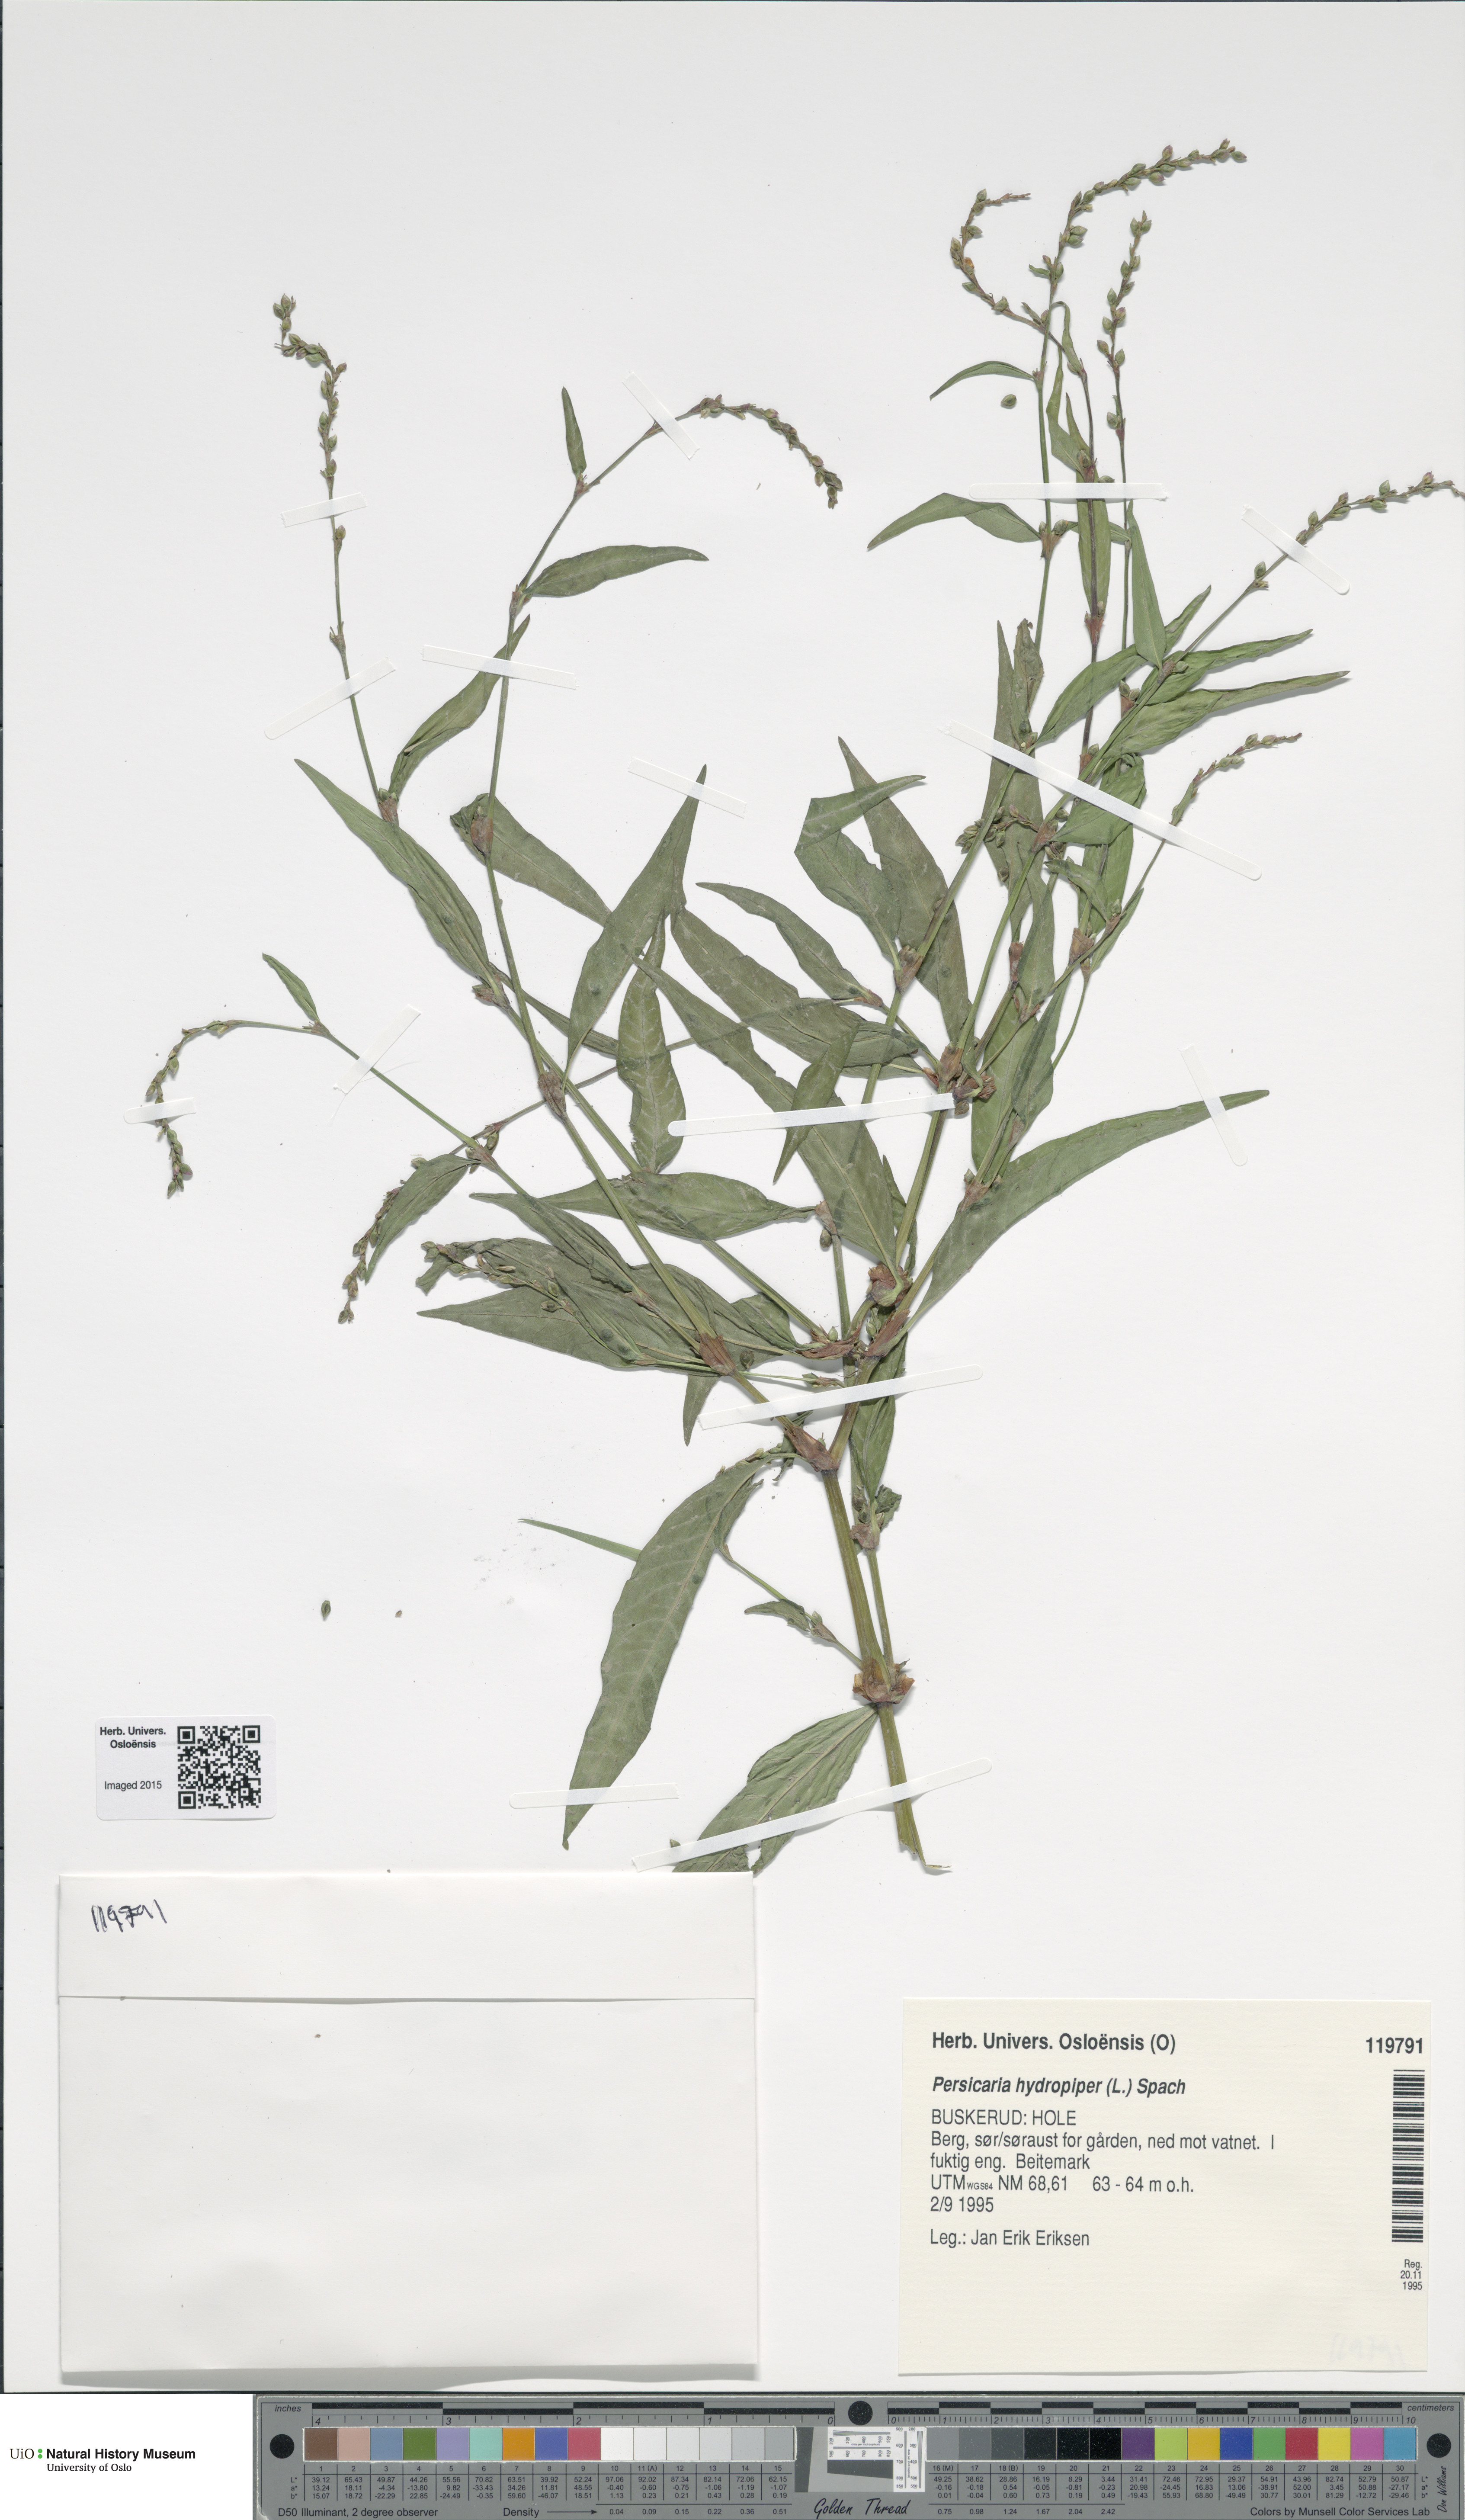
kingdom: Plantae
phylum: Tracheophyta
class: Magnoliopsida
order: Caryophyllales
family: Polygonaceae
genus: Persicaria
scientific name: Persicaria hydropiper
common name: Water-pepper
